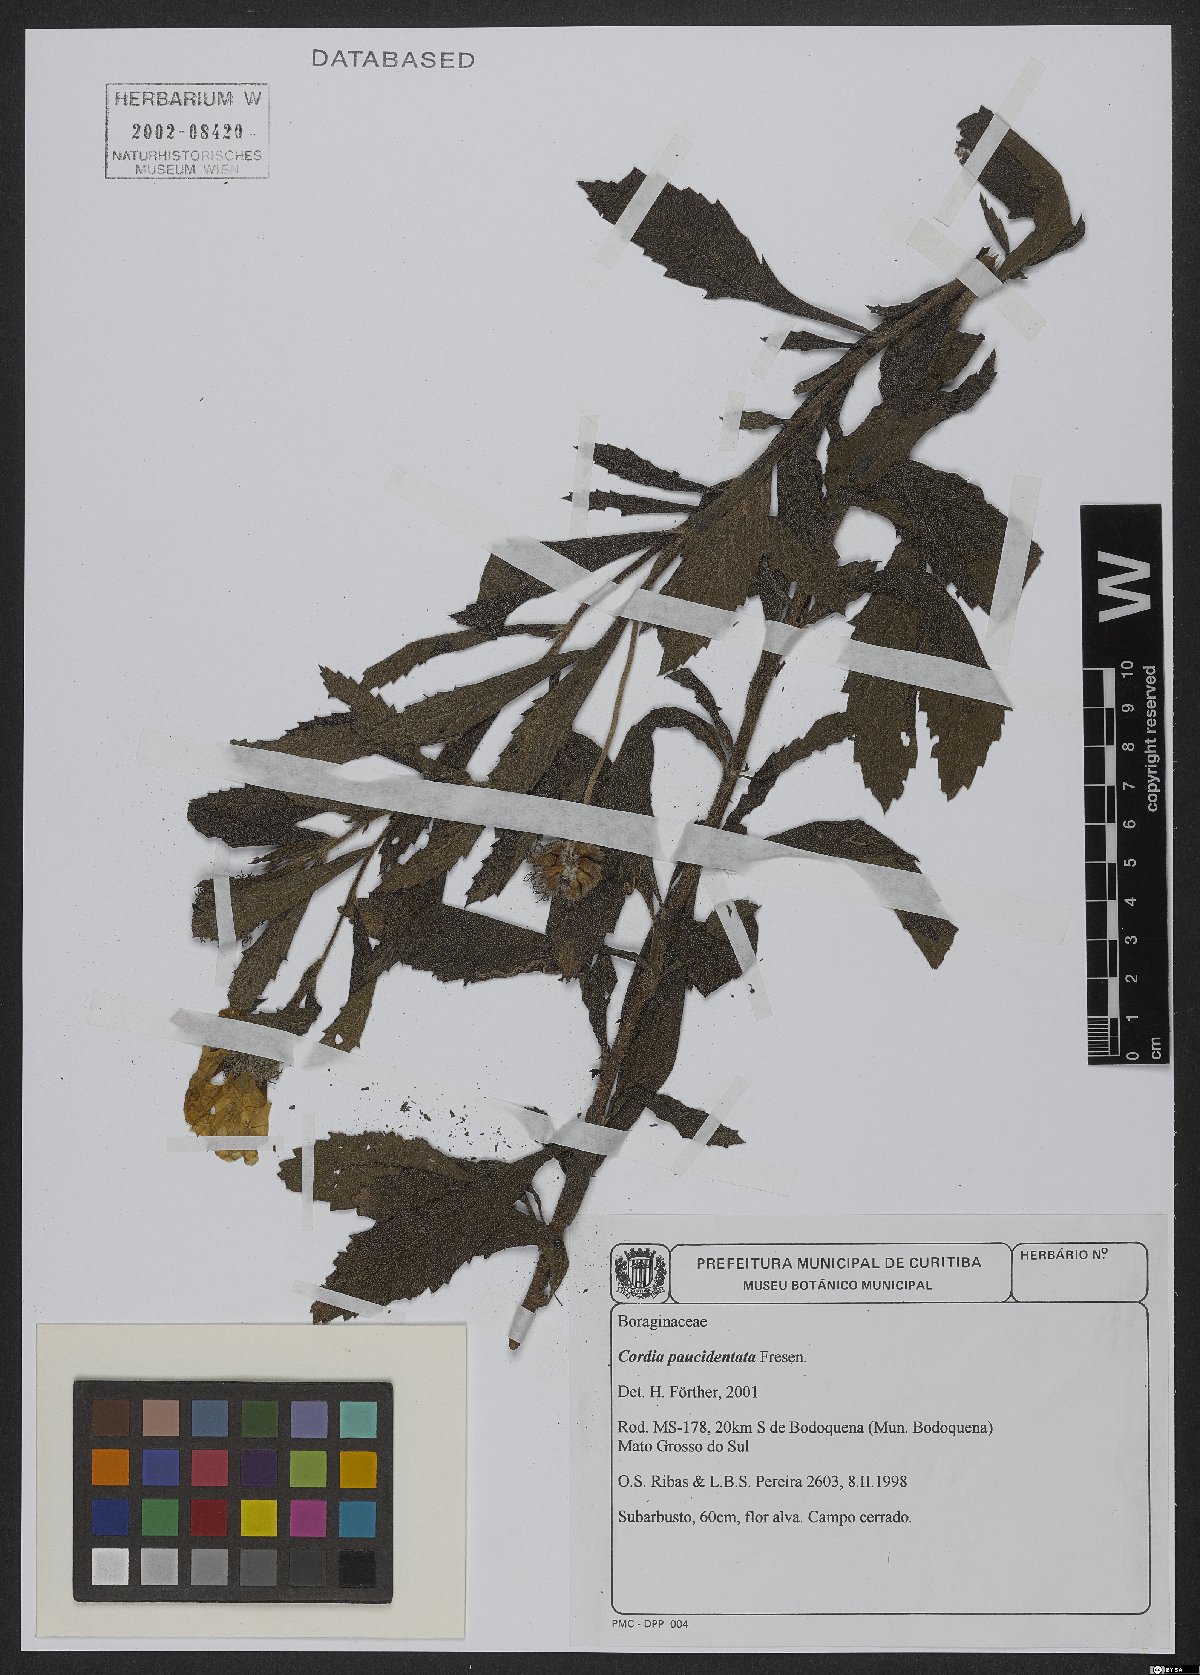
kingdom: Plantae
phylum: Tracheophyta
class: Magnoliopsida
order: Boraginales
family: Cordiaceae
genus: Varronia
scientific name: Varronia paucidentata
